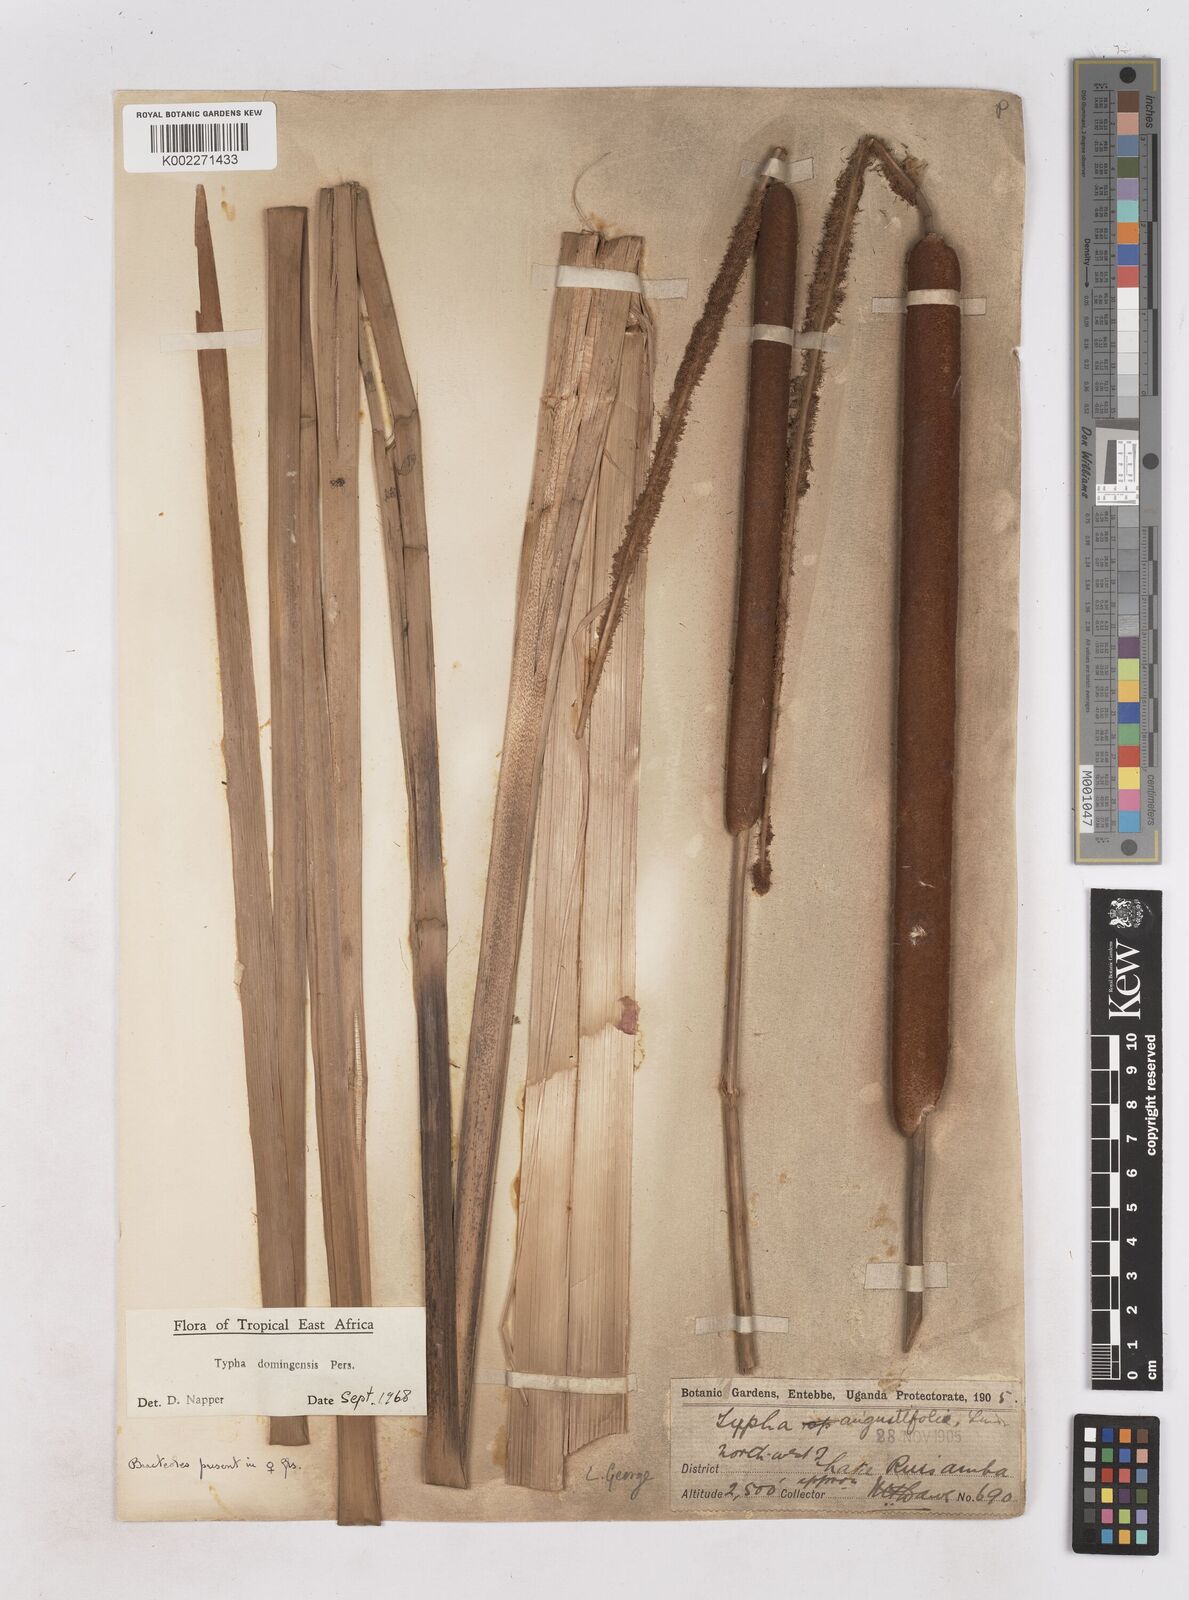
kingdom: Plantae
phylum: Tracheophyta
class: Liliopsida
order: Poales
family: Typhaceae
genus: Typha
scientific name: Typha domingensis
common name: Southern cattail
